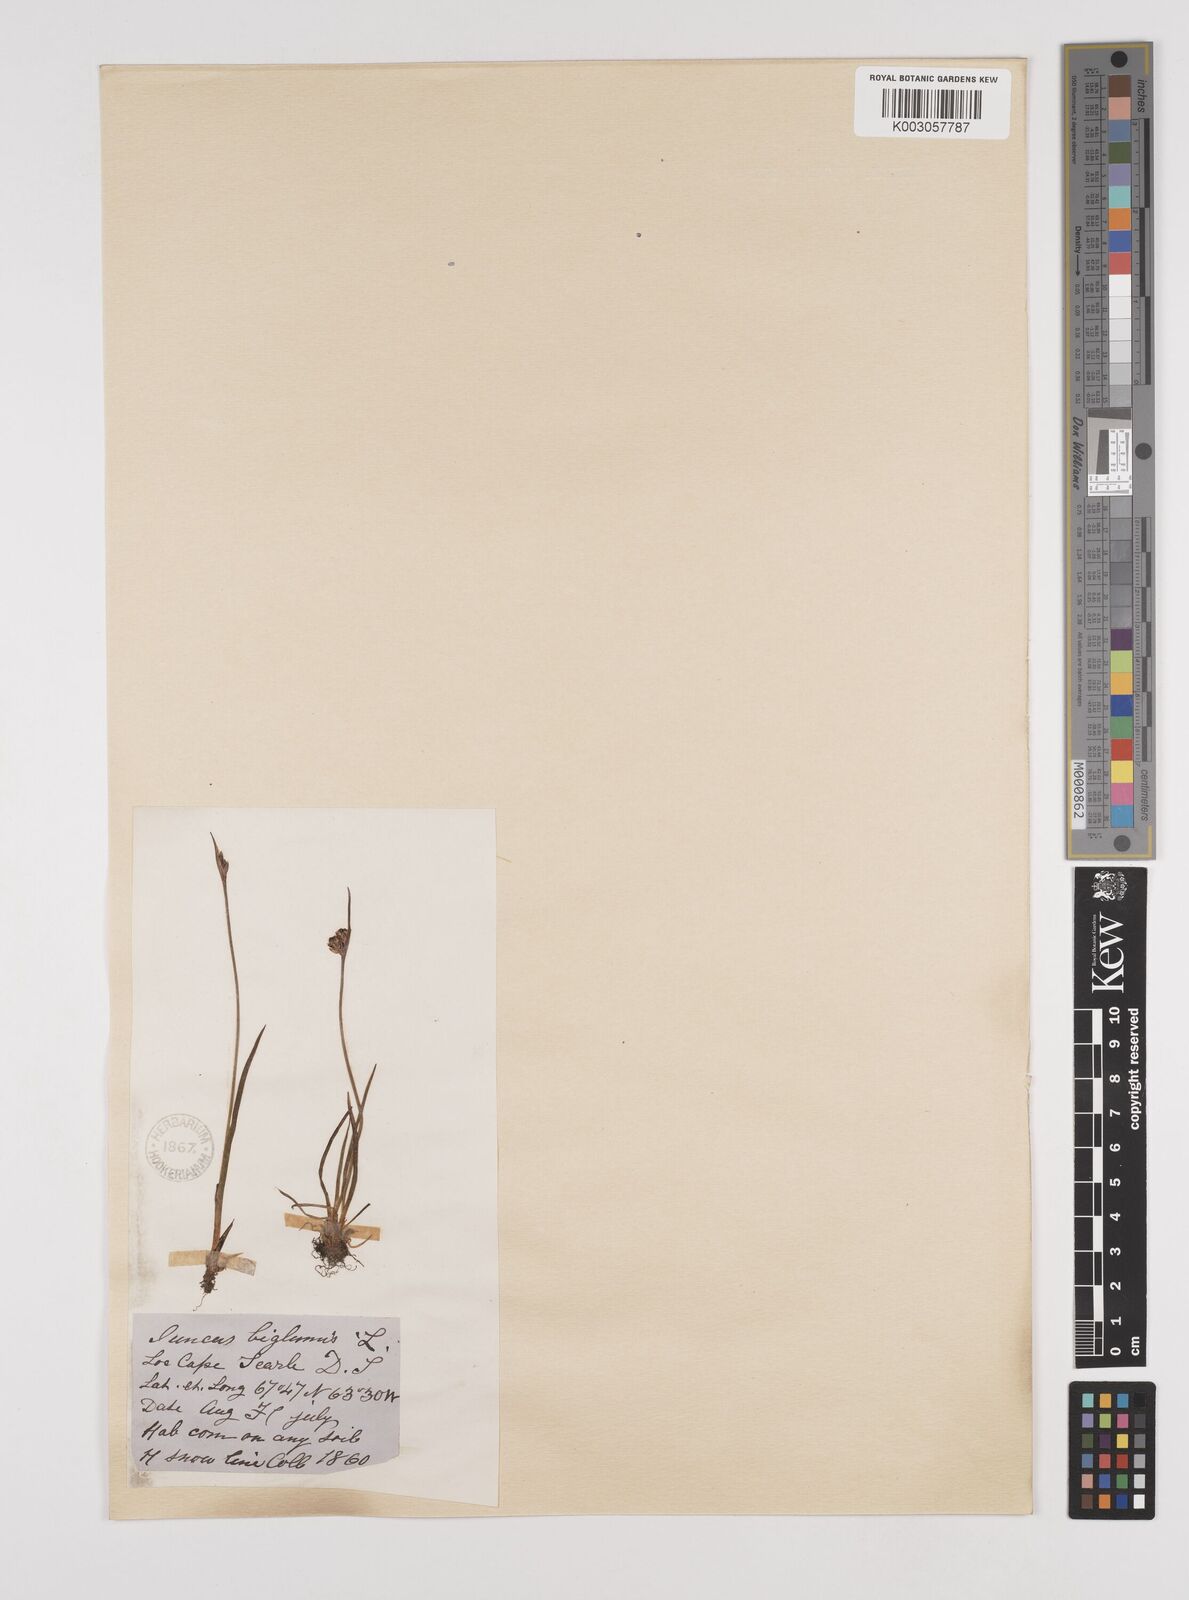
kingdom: Plantae
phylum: Tracheophyta
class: Liliopsida
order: Poales
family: Juncaceae
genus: Juncus
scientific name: Juncus biglumis
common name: Two-flowered rush
